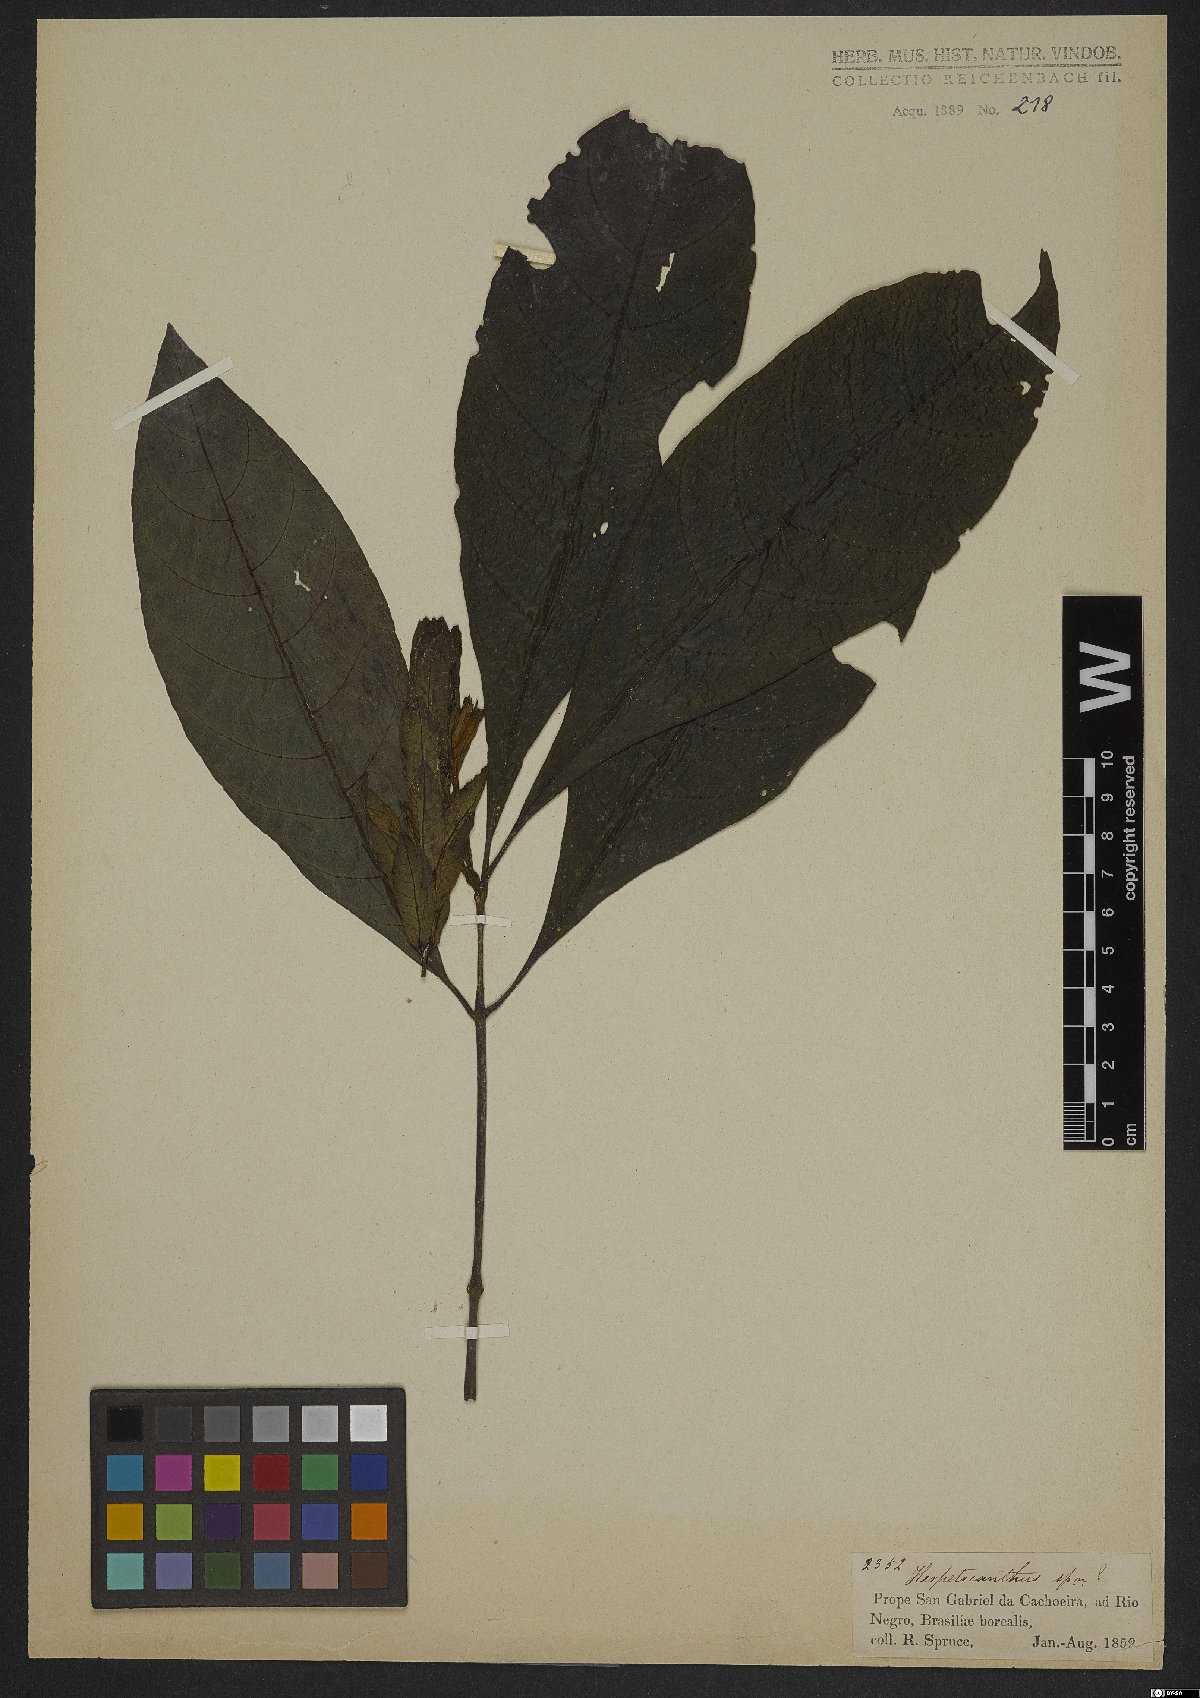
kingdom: Plantae
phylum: Tracheophyta
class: Magnoliopsida
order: Lamiales
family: Acanthaceae
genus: Herpetacanthus
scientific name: Herpetacanthus
